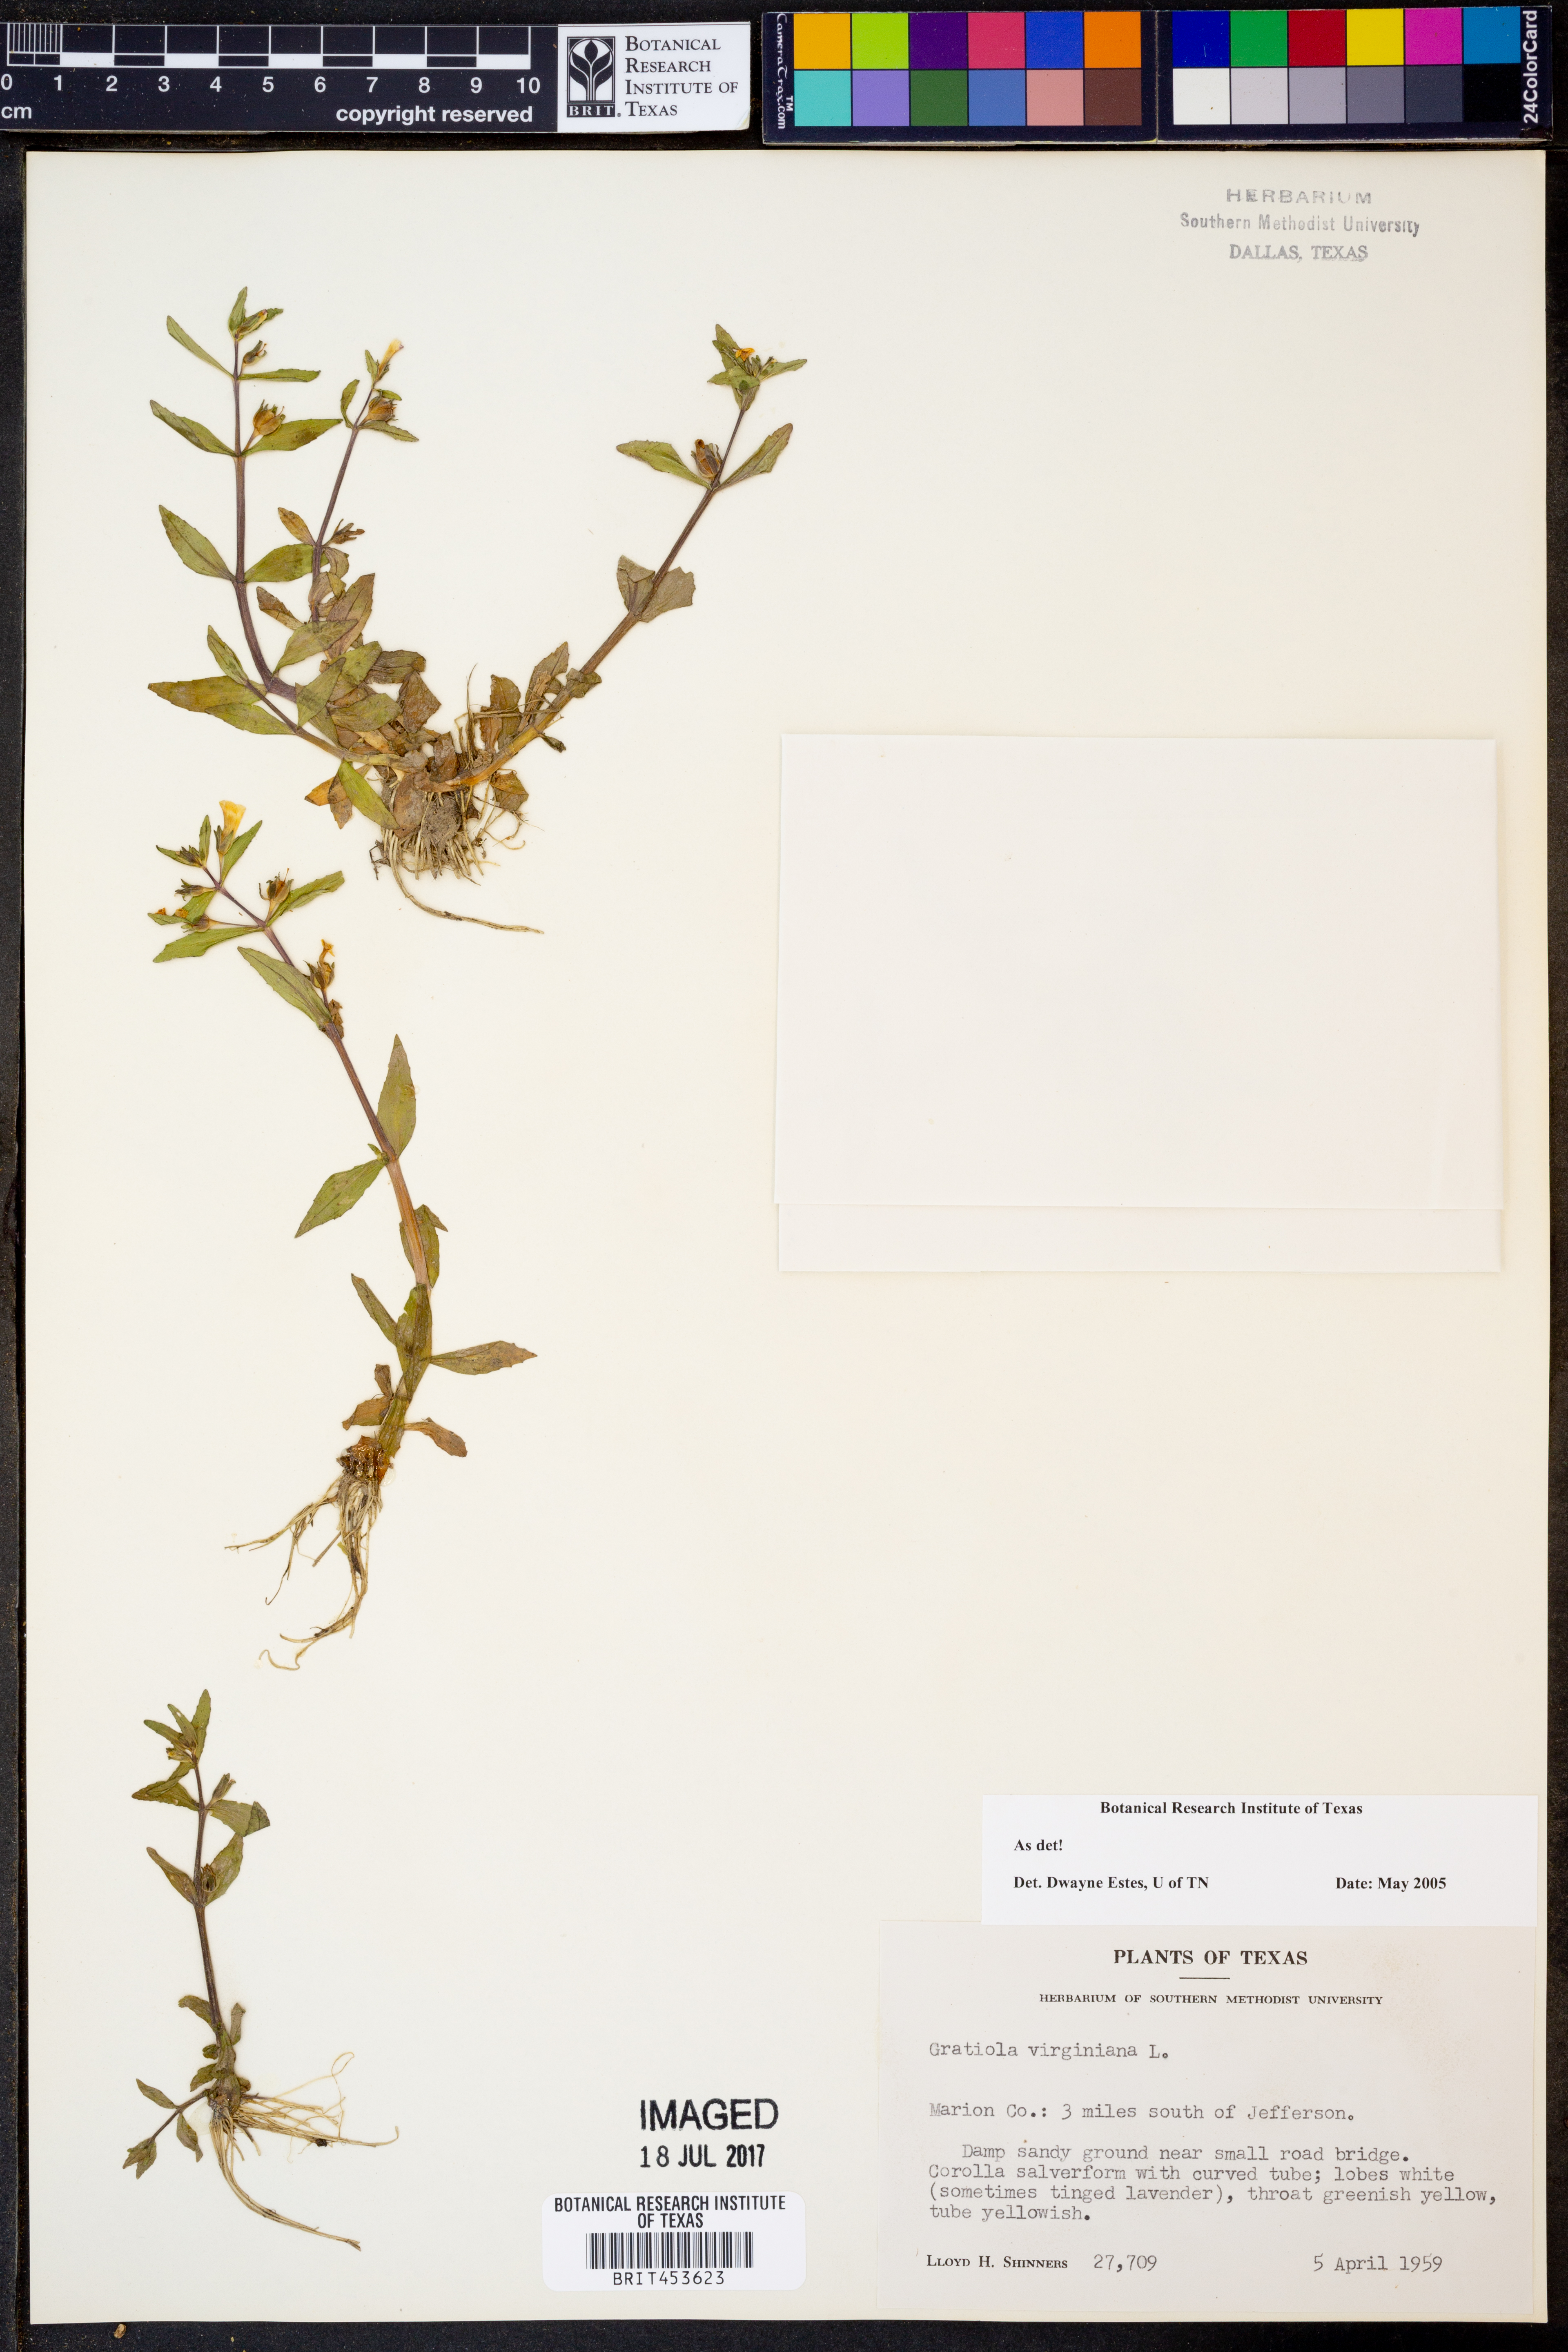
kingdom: Plantae
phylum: Tracheophyta
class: Magnoliopsida
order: Lamiales
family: Plantaginaceae
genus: Gratiola
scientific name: Gratiola virginiana
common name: Roundfruit hedgehyssop
